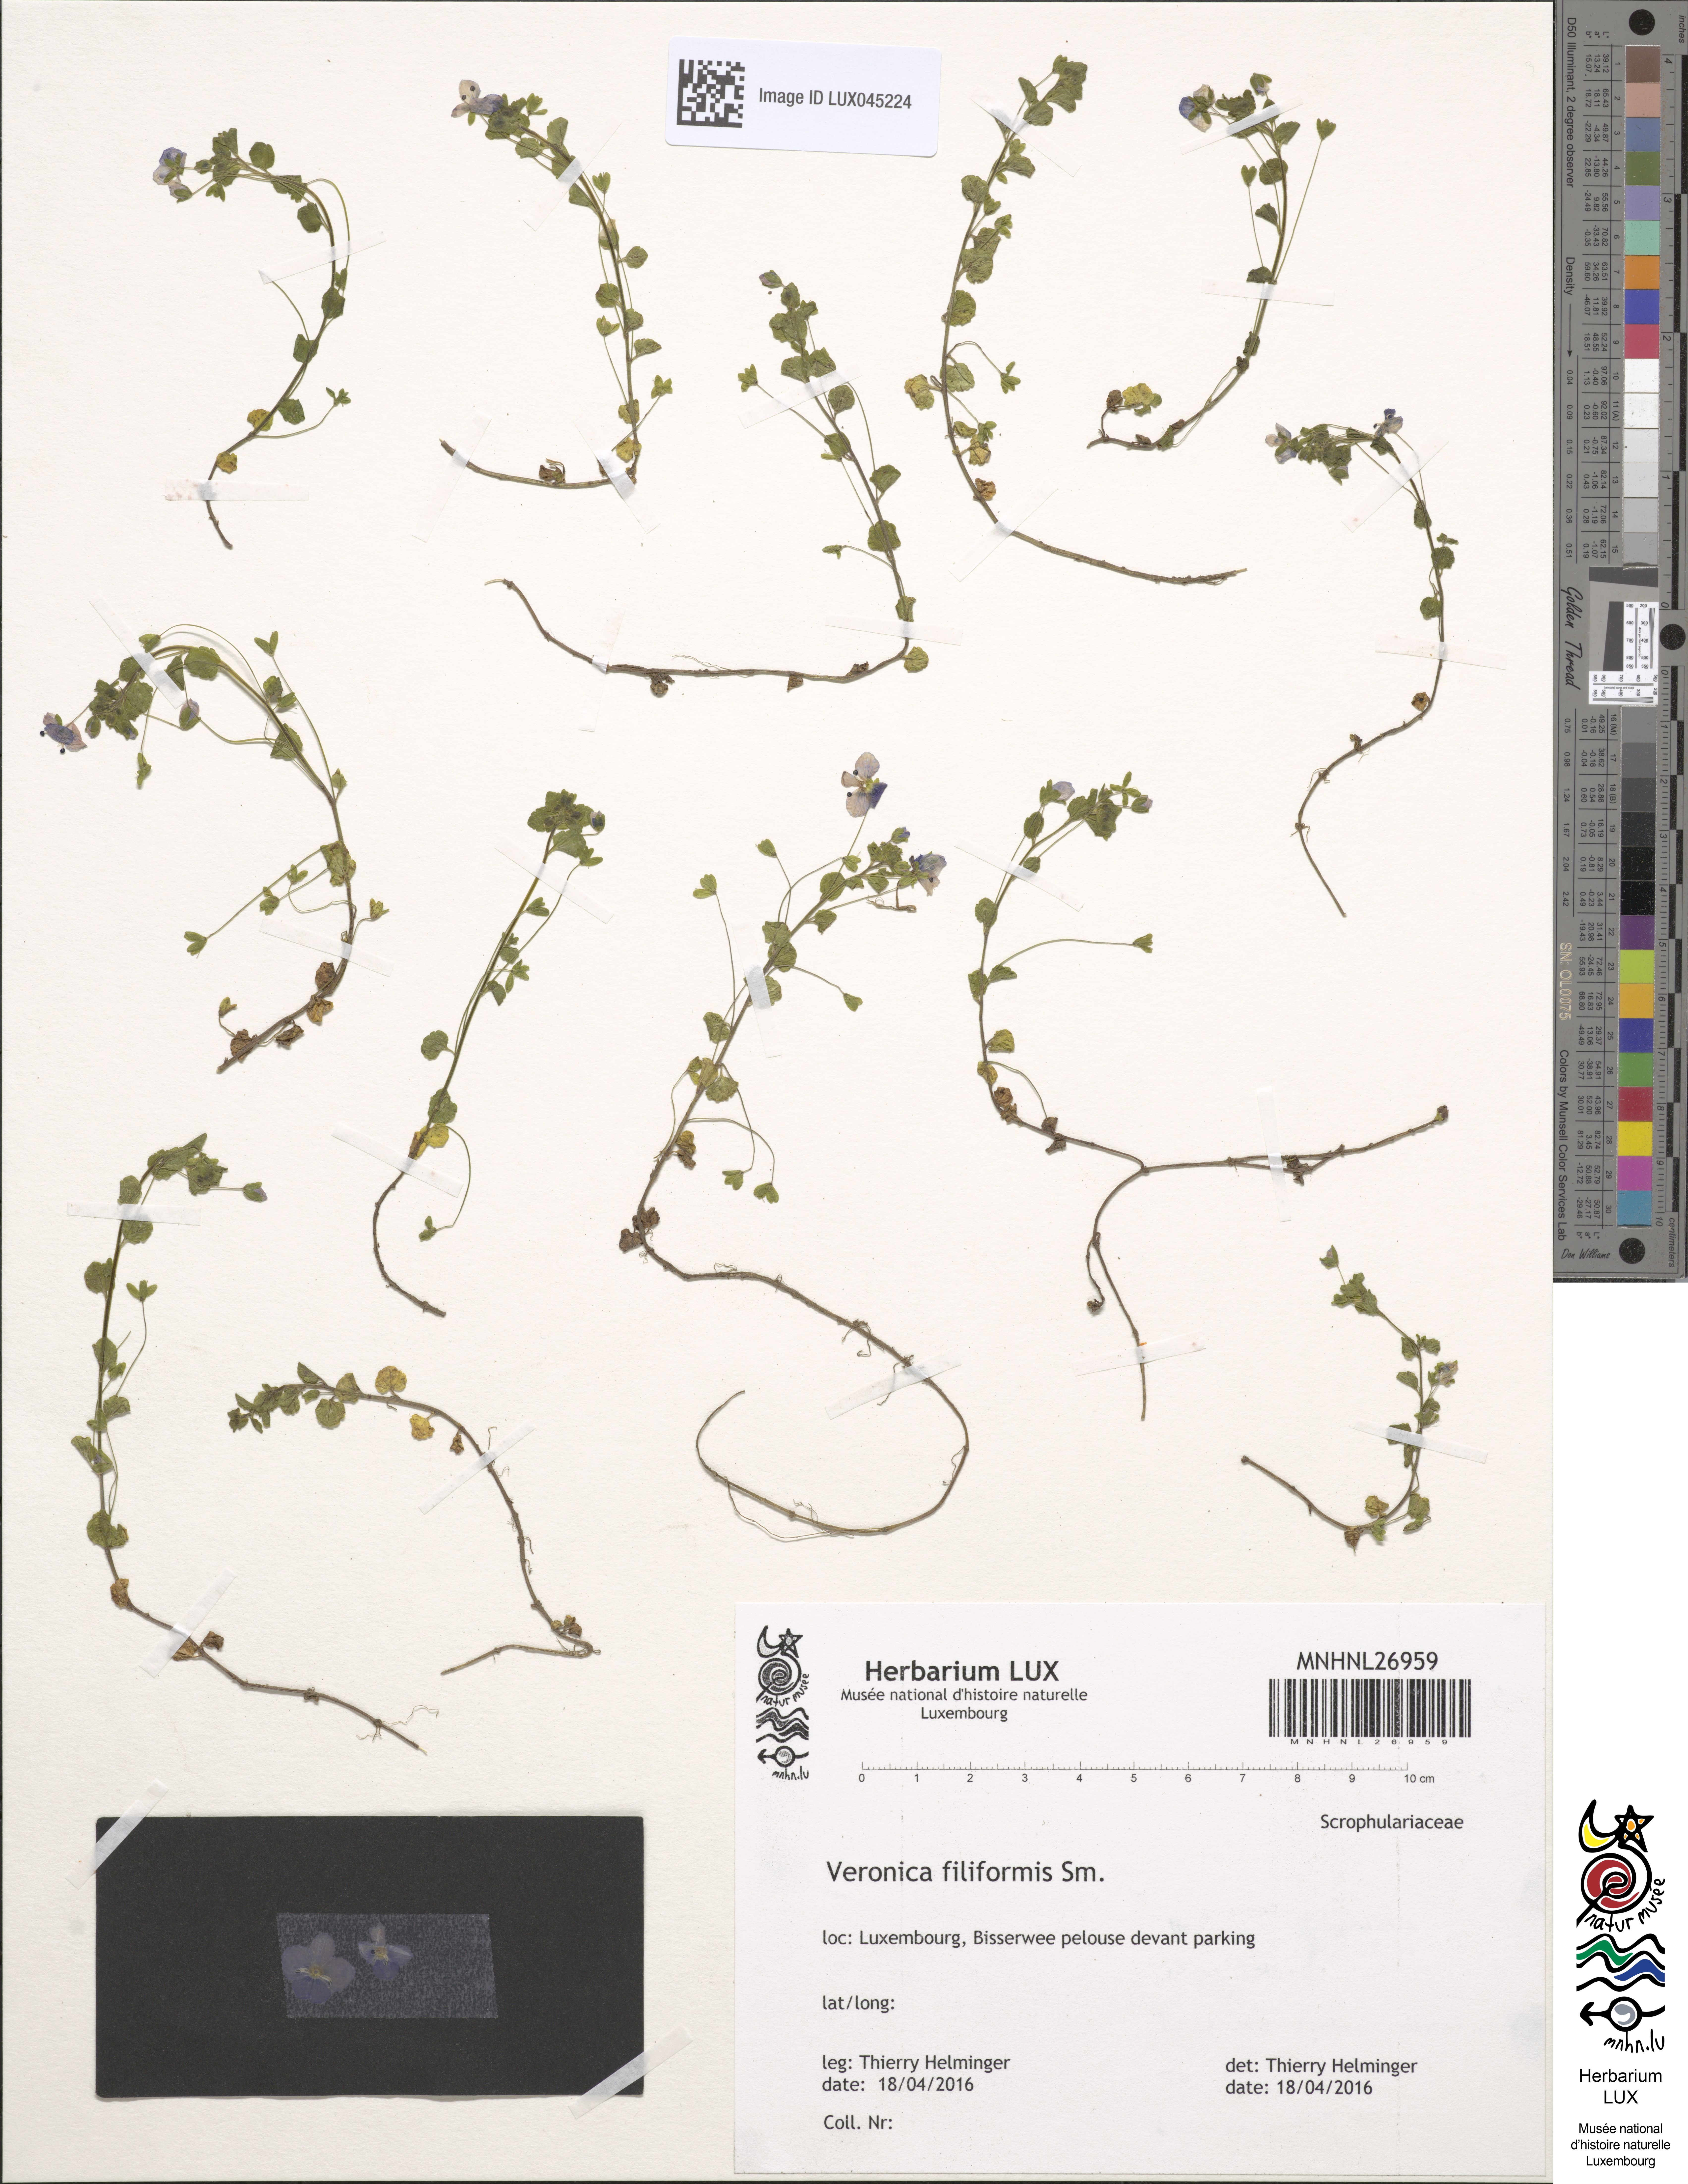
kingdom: Plantae
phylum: Tracheophyta
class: Magnoliopsida
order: Lamiales
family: Plantaginaceae
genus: Veronica
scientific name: Veronica filiformis
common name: Slender speedwell
